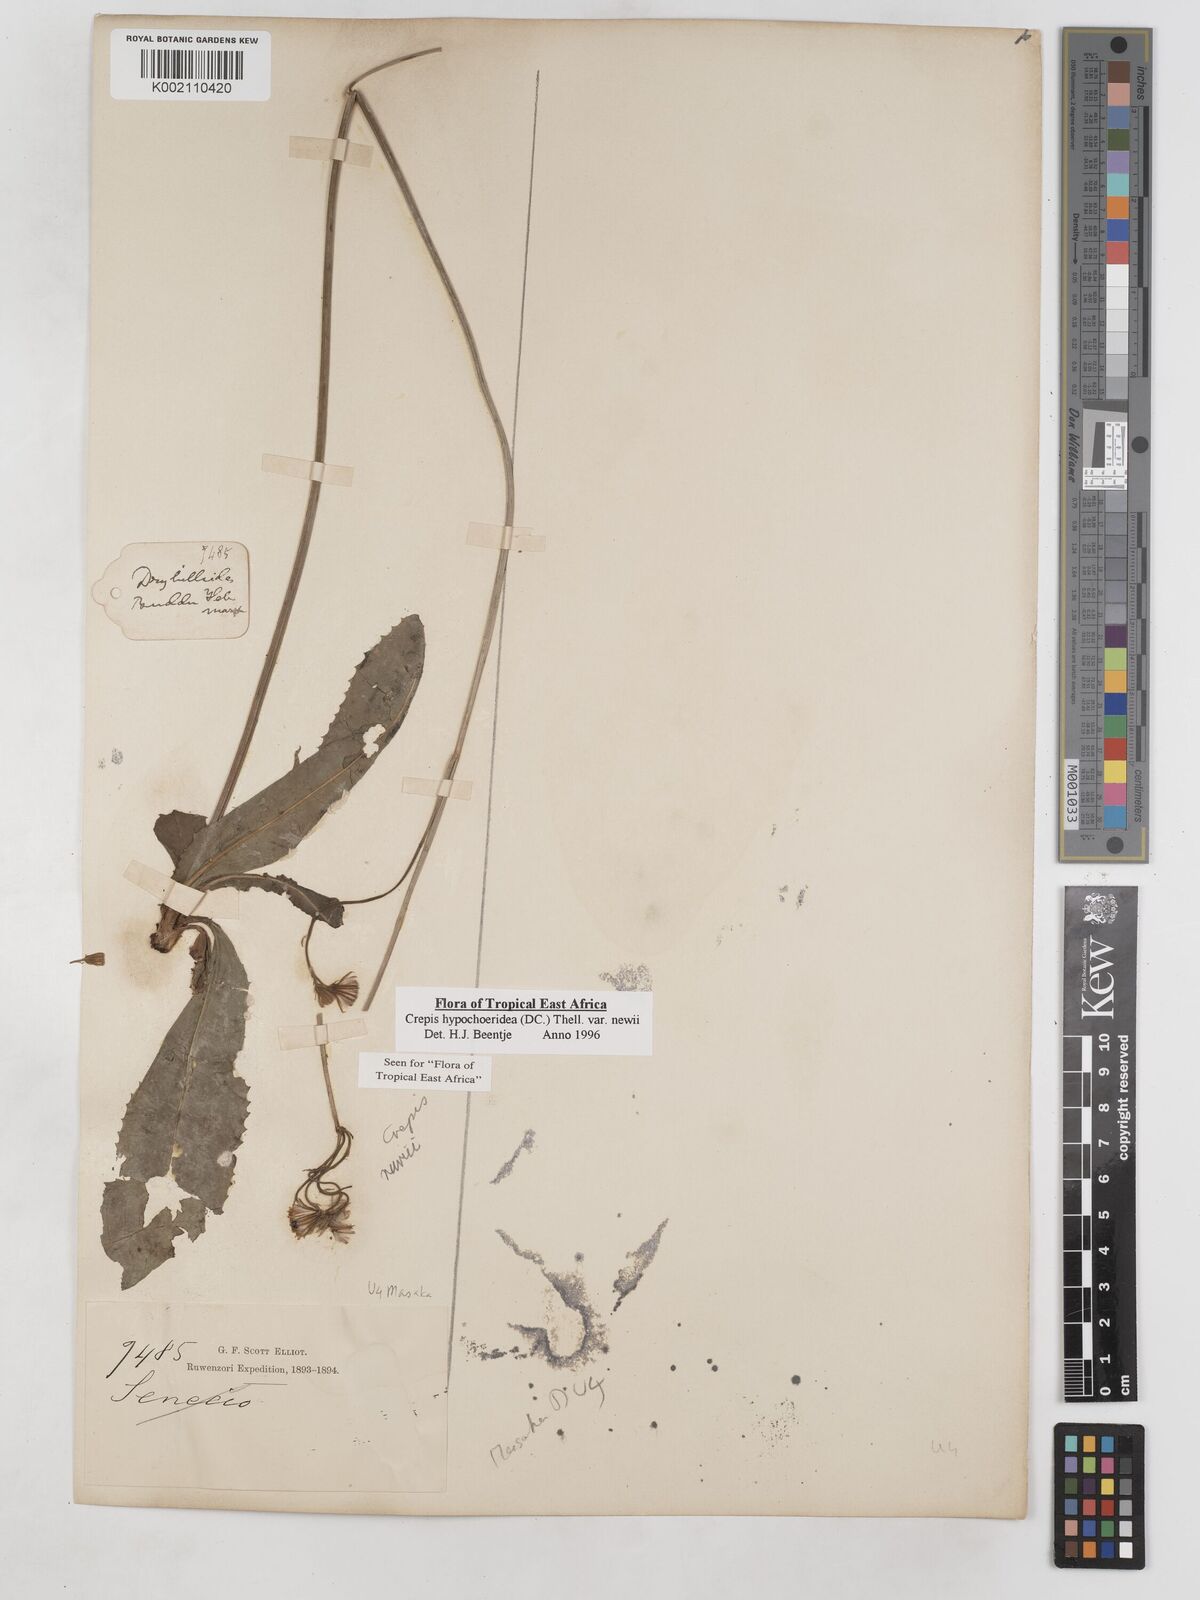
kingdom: Plantae
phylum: Tracheophyta
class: Magnoliopsida
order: Asterales
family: Asteraceae
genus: Crepis
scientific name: Crepis hypochoeridea
